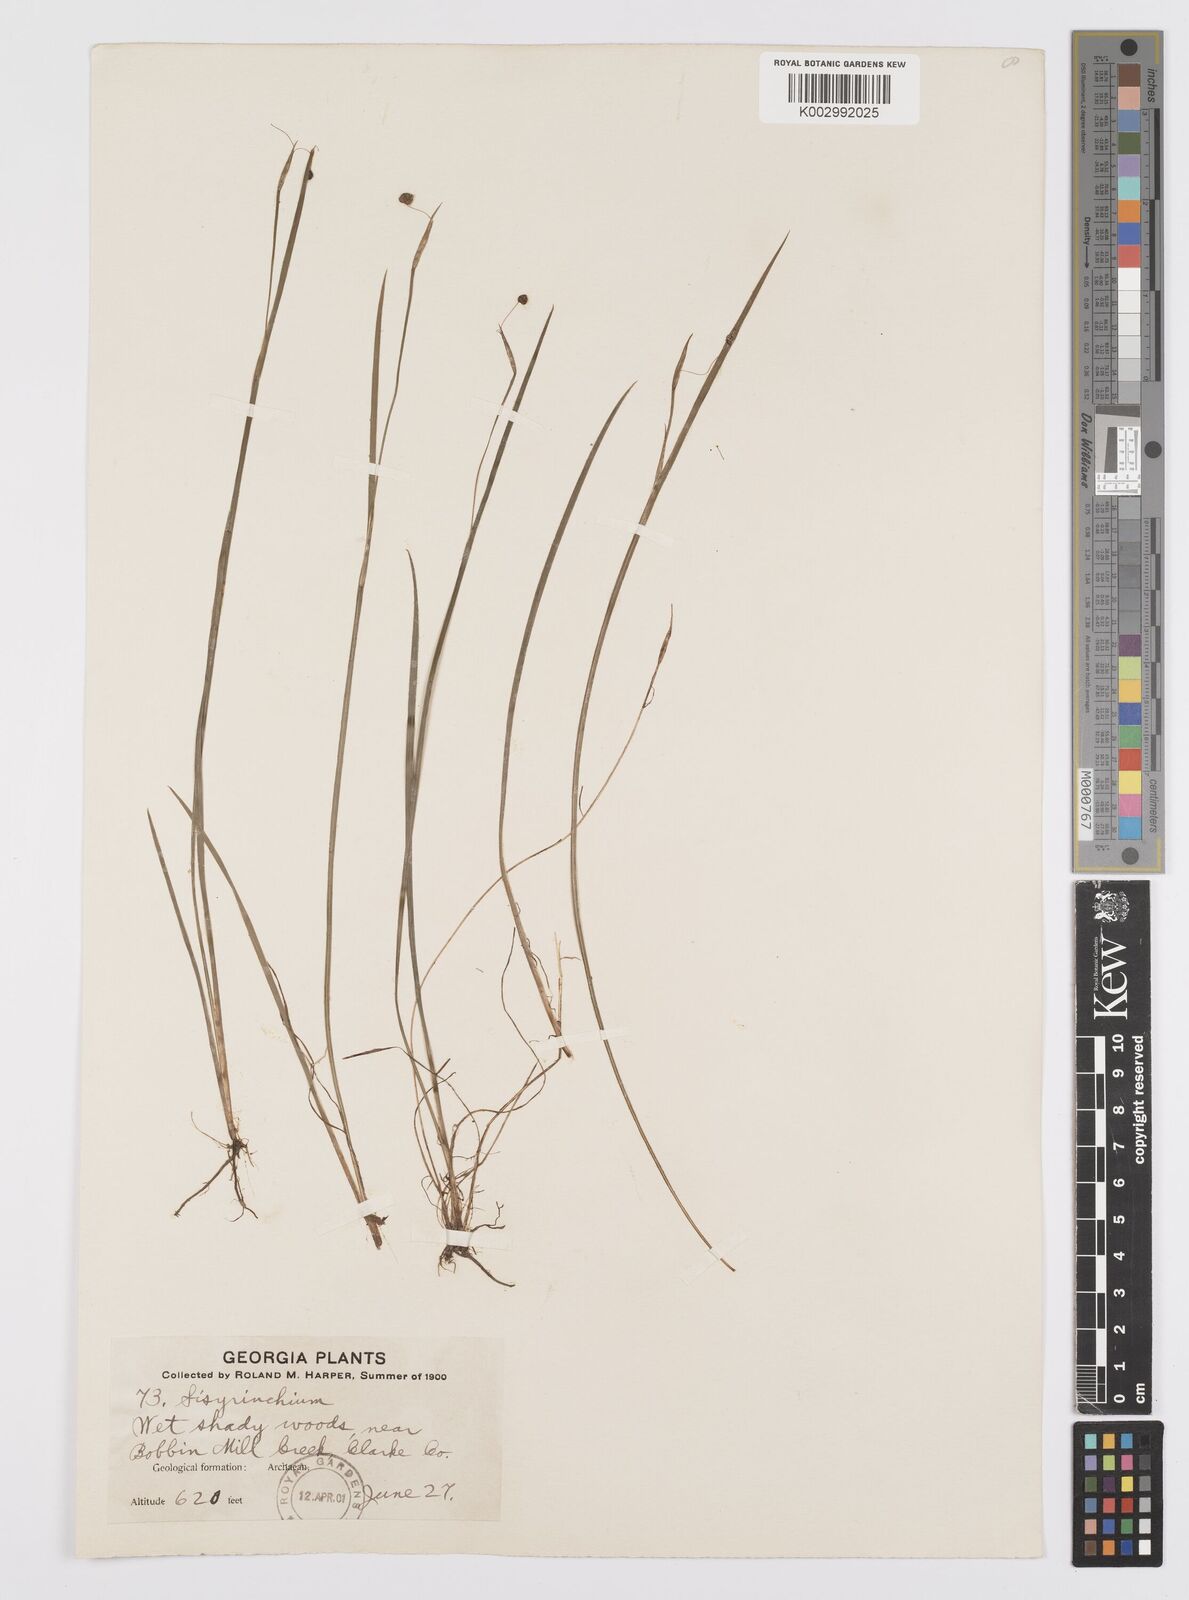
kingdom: Plantae
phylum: Tracheophyta
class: Liliopsida
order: Asparagales
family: Iridaceae
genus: Sisyrinchium
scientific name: Sisyrinchium
